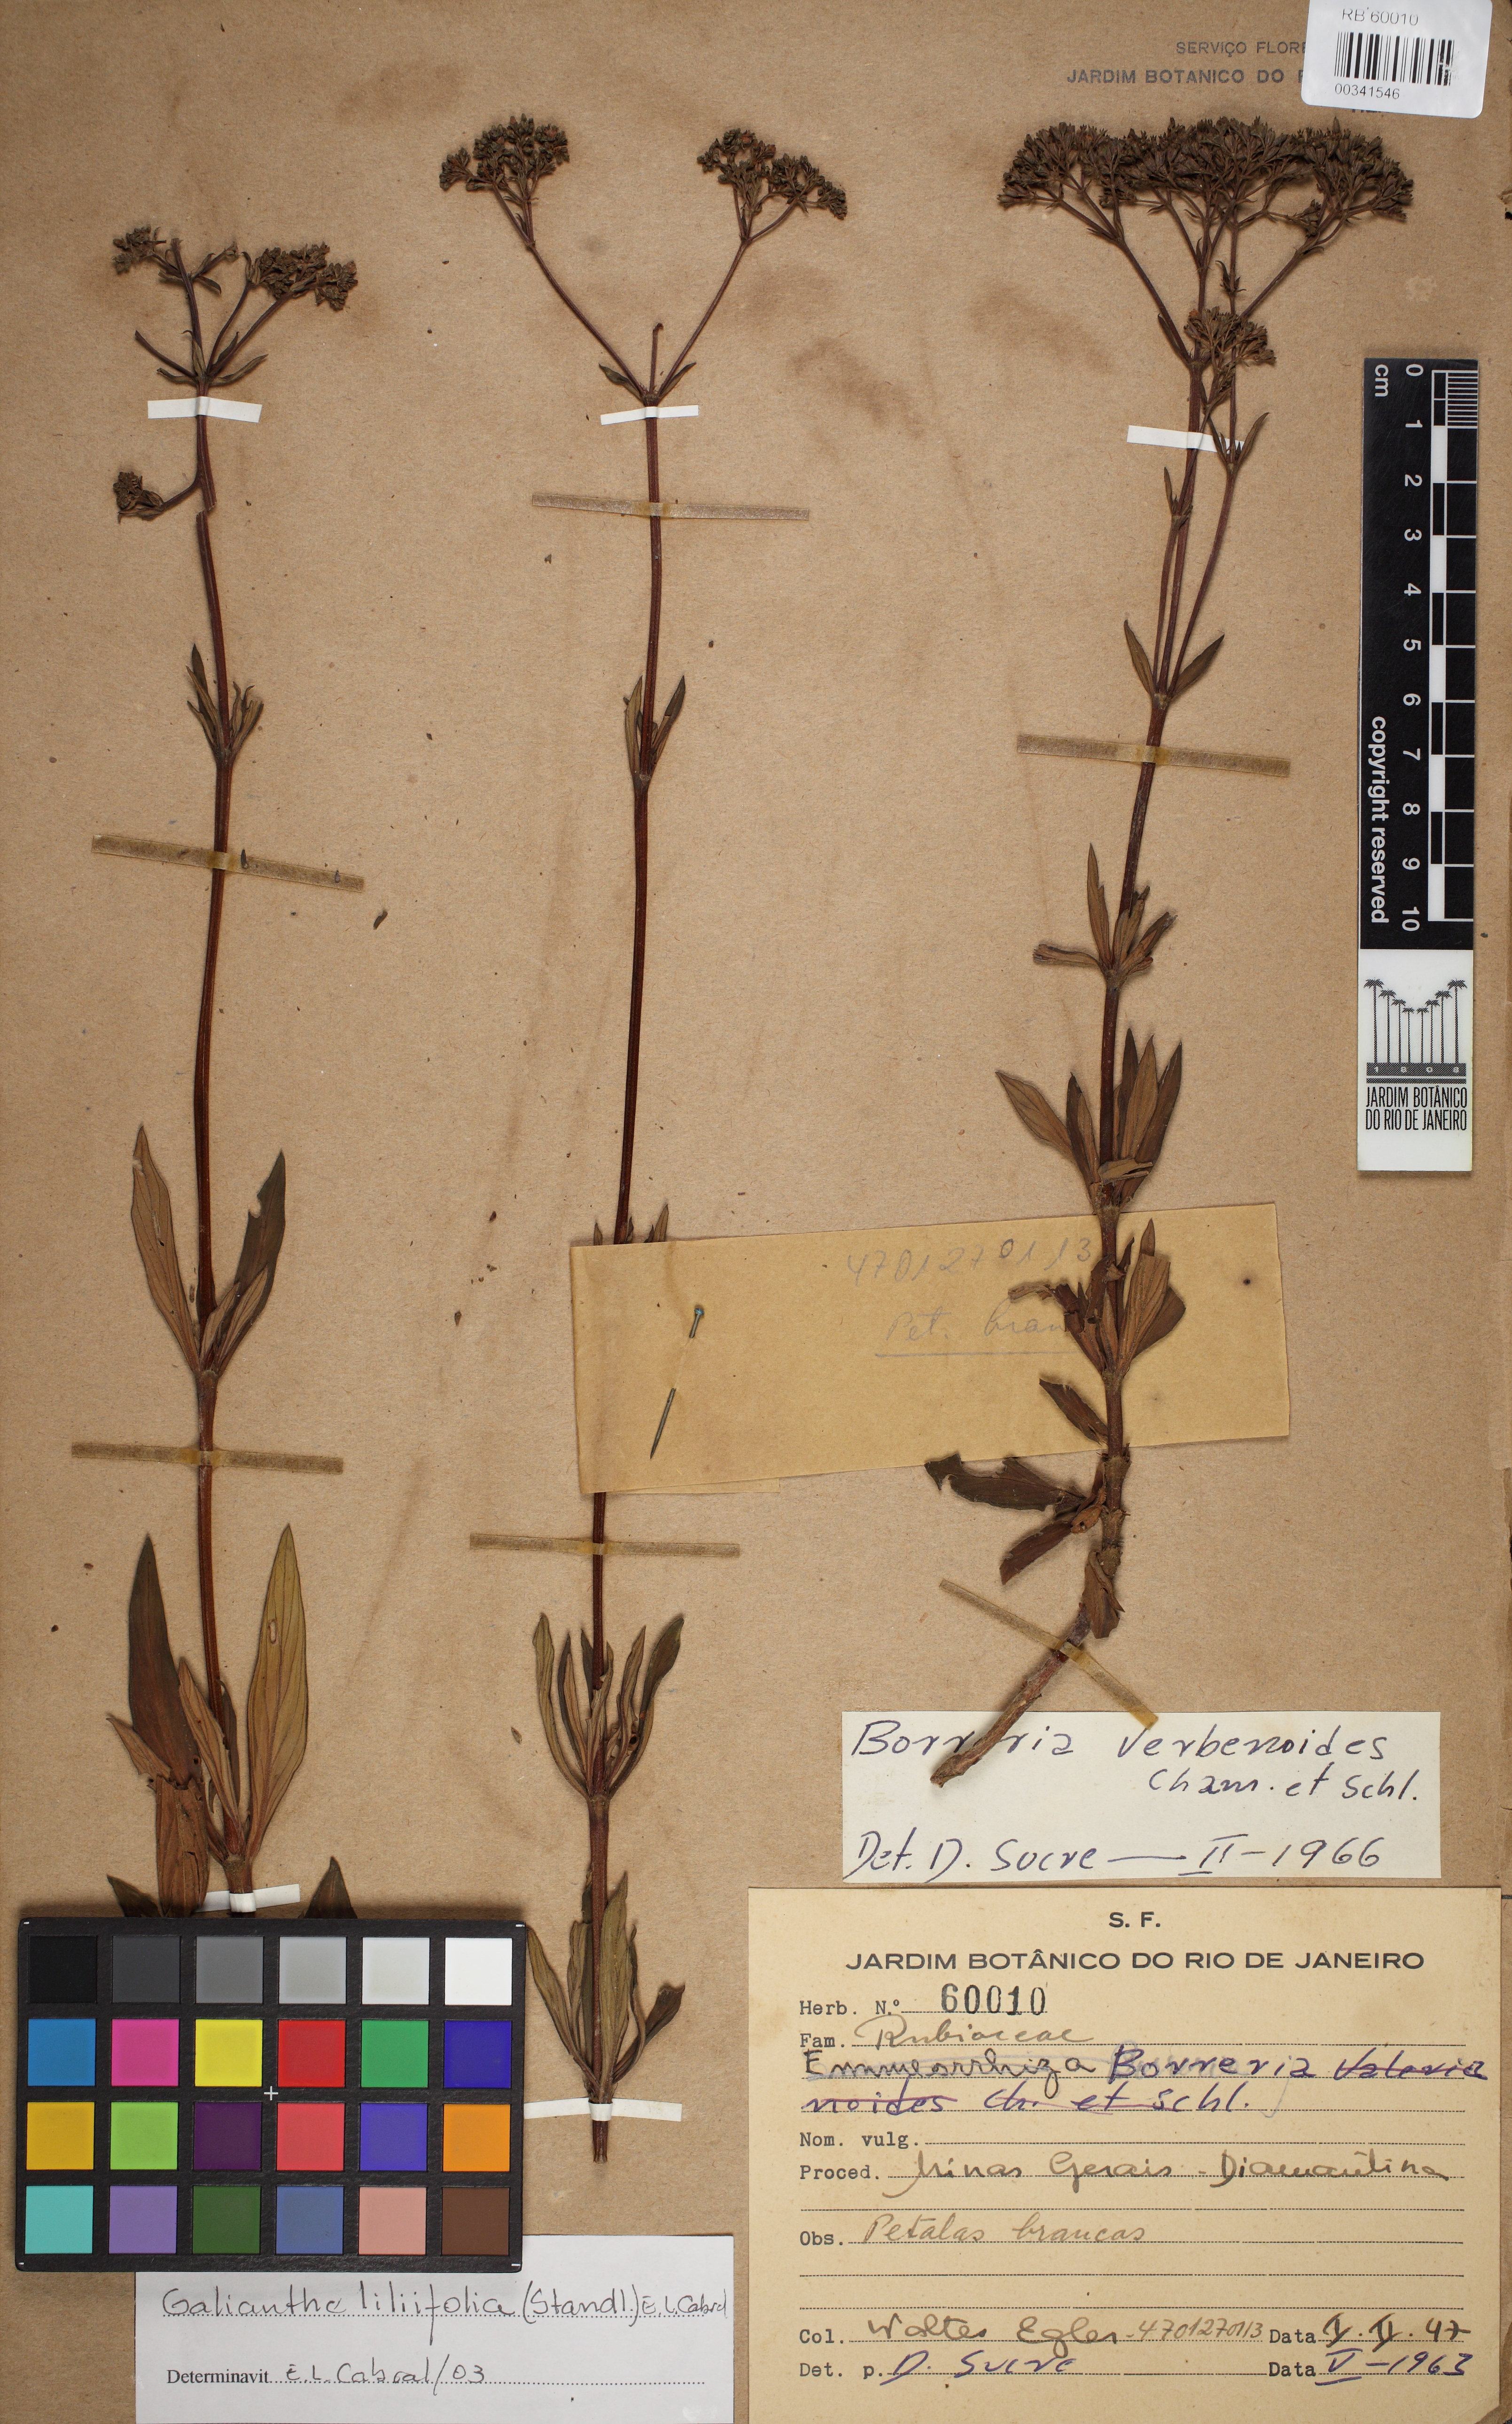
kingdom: Plantae
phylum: Tracheophyta
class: Magnoliopsida
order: Gentianales
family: Rubiaceae
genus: Galianthe
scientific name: Galianthe liliifolia
